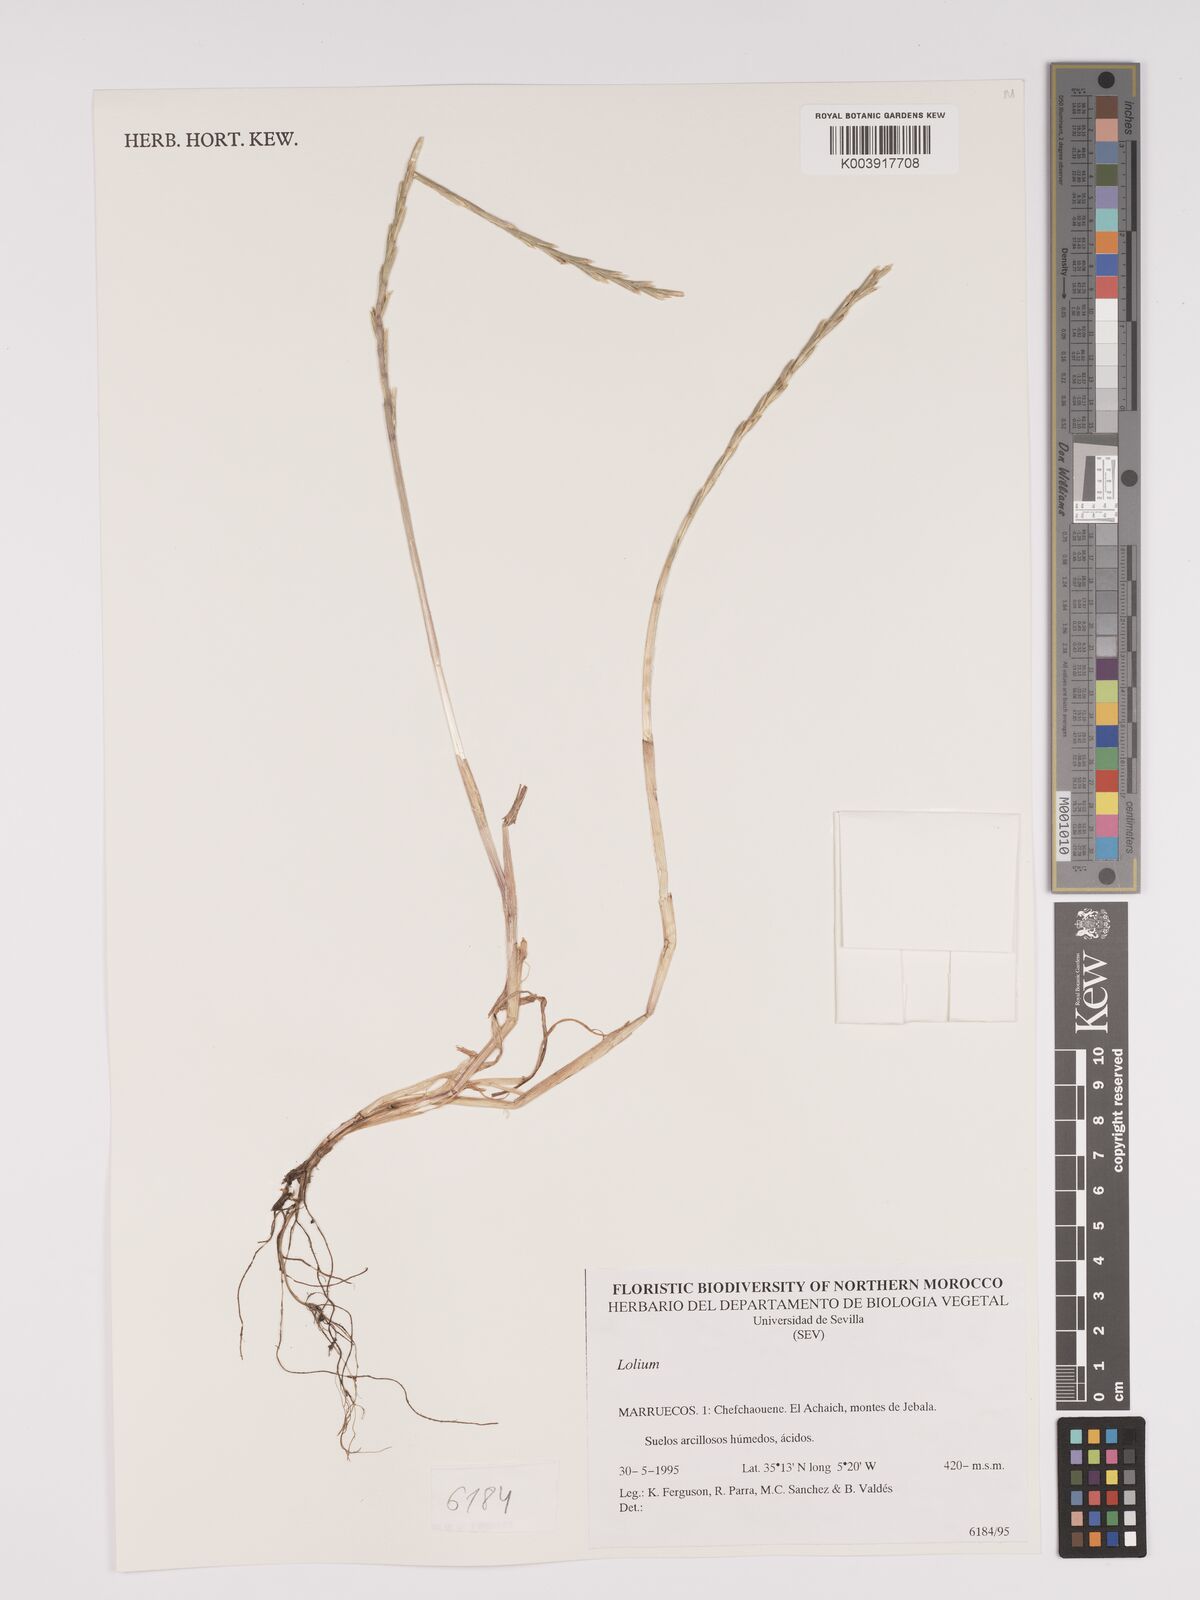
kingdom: Plantae
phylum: Tracheophyta
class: Liliopsida
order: Poales
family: Poaceae
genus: Lolium
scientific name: Lolium
